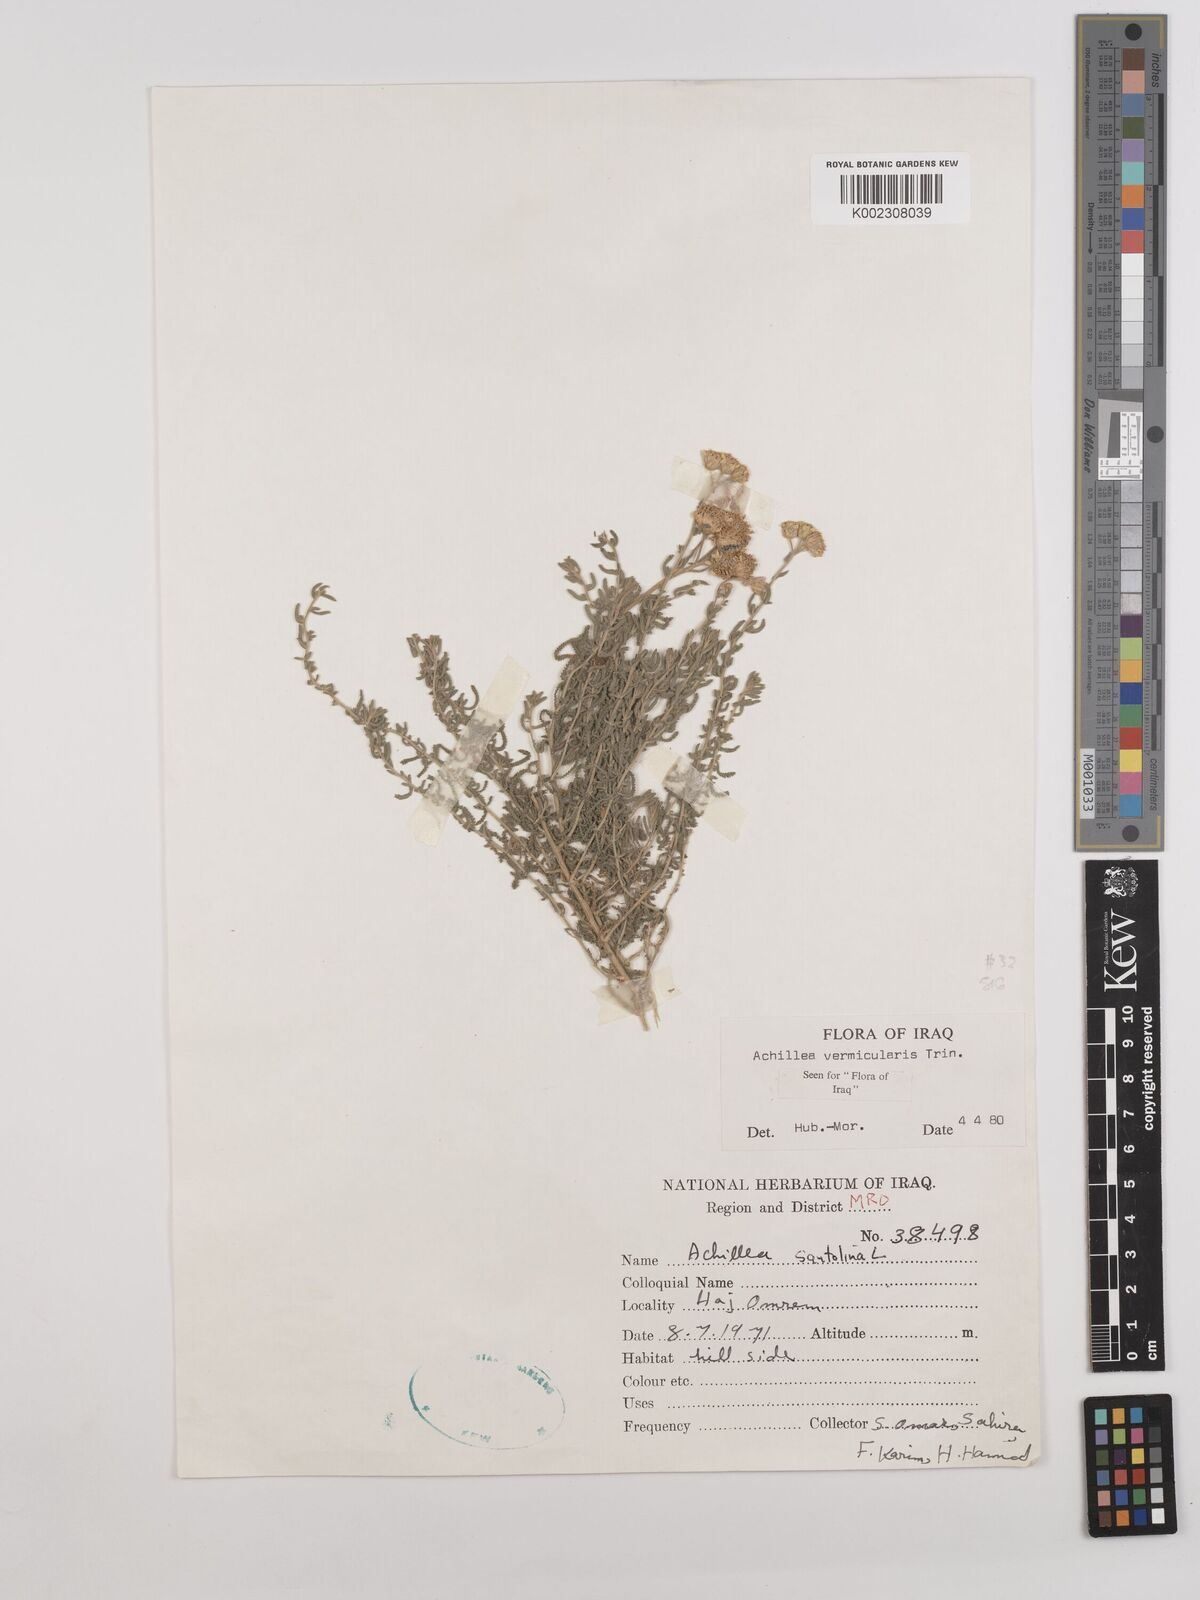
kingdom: Plantae
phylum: Tracheophyta
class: Magnoliopsida
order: Asterales
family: Asteraceae
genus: Achillea
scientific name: Achillea vermicularis
